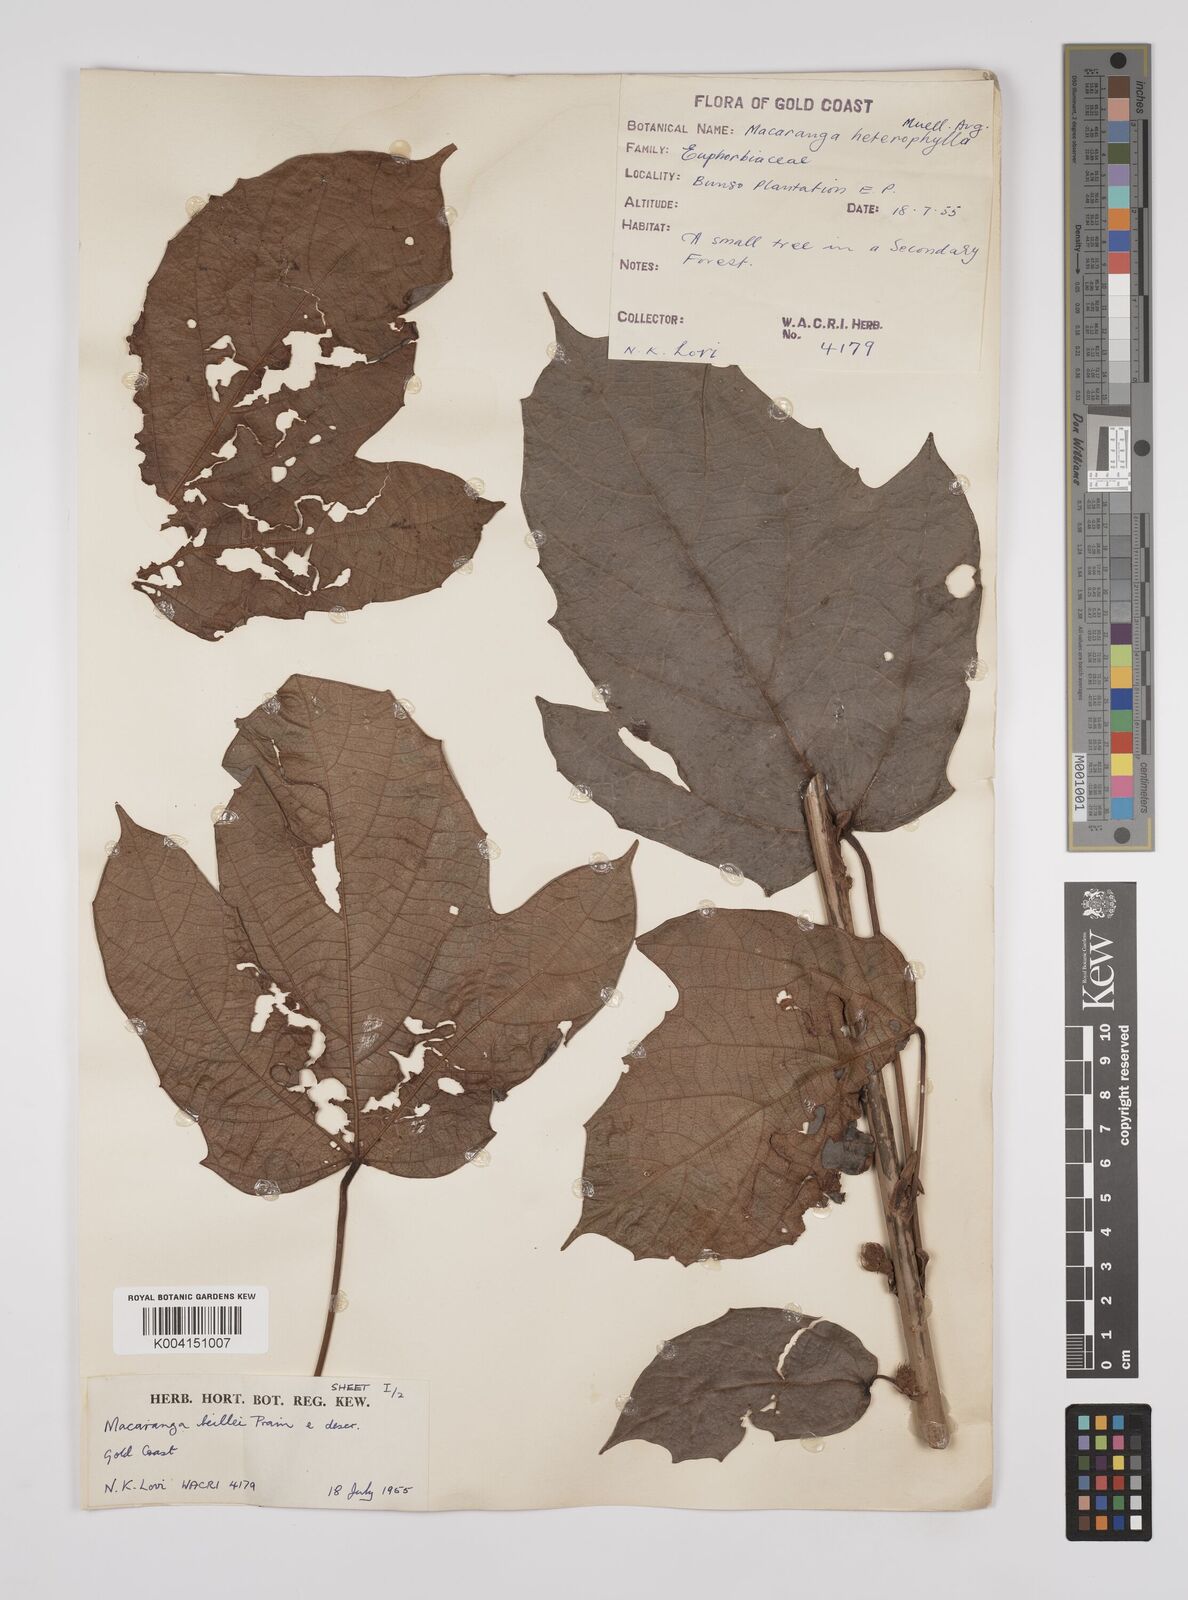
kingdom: Plantae
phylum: Tracheophyta
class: Magnoliopsida
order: Malpighiales
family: Euphorbiaceae
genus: Macaranga
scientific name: Macaranga beillei
